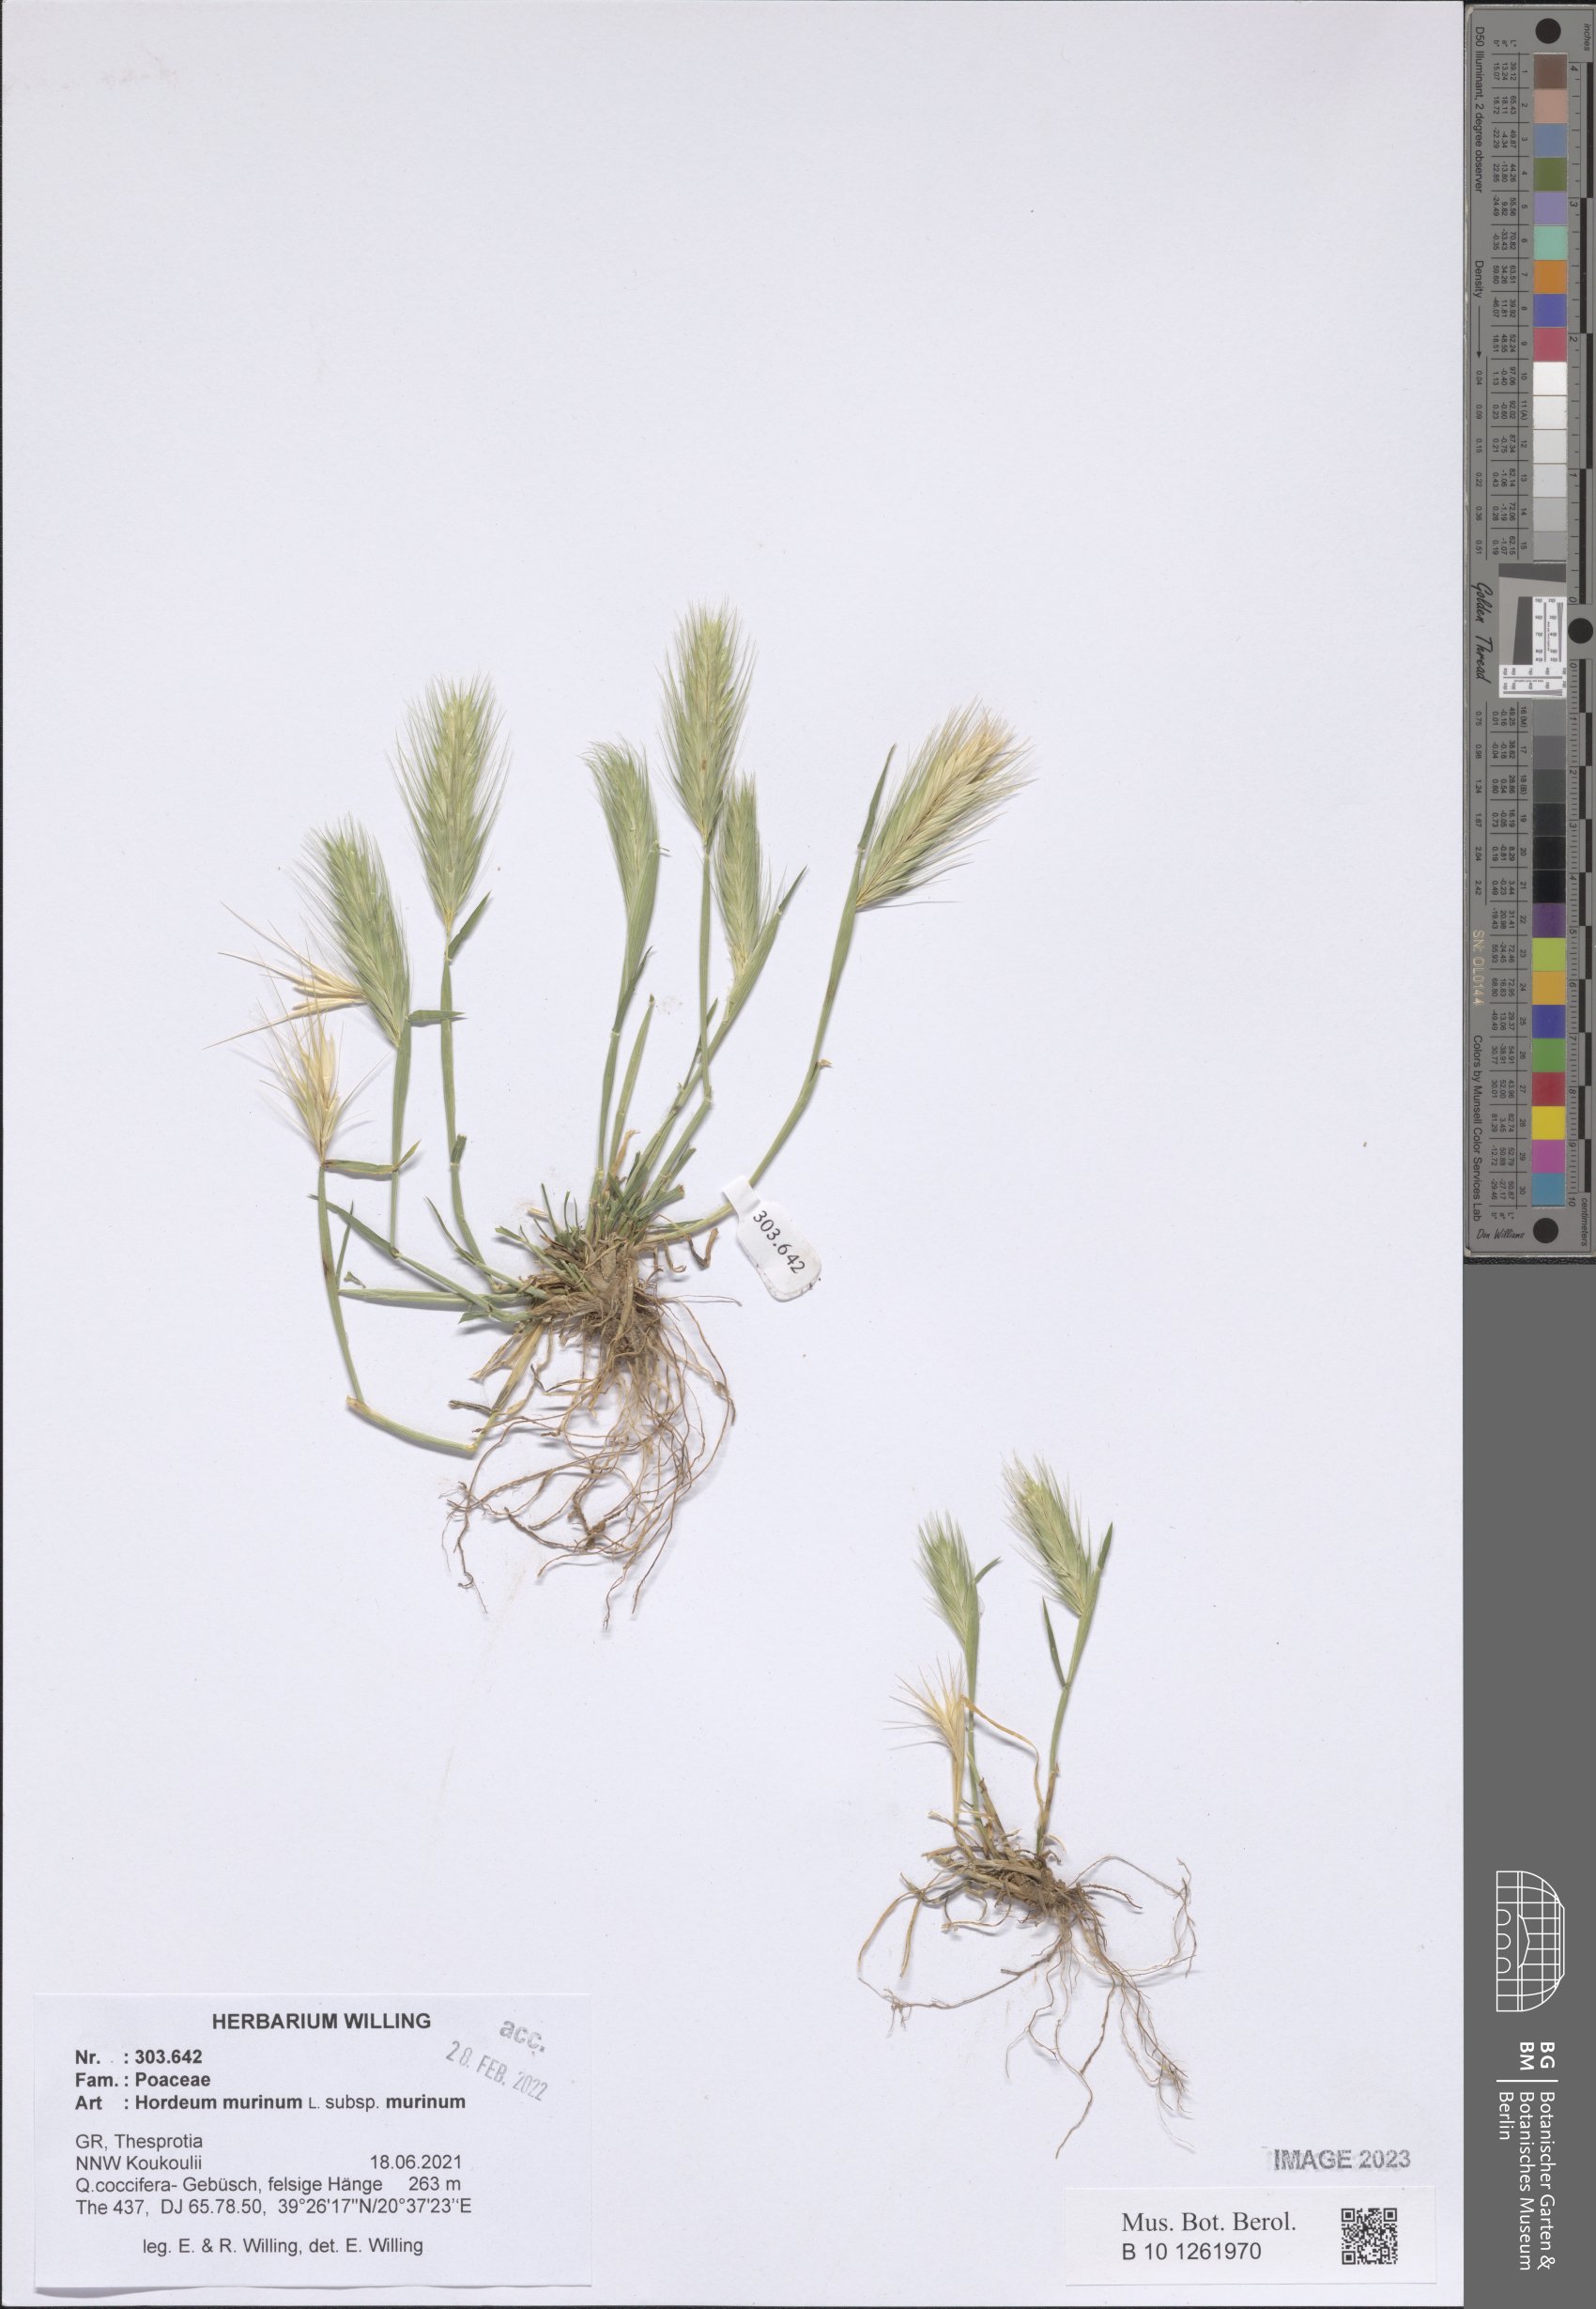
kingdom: Plantae
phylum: Tracheophyta
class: Liliopsida
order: Poales
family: Poaceae
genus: Hordeum
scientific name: Hordeum murinum
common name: Wall barley
